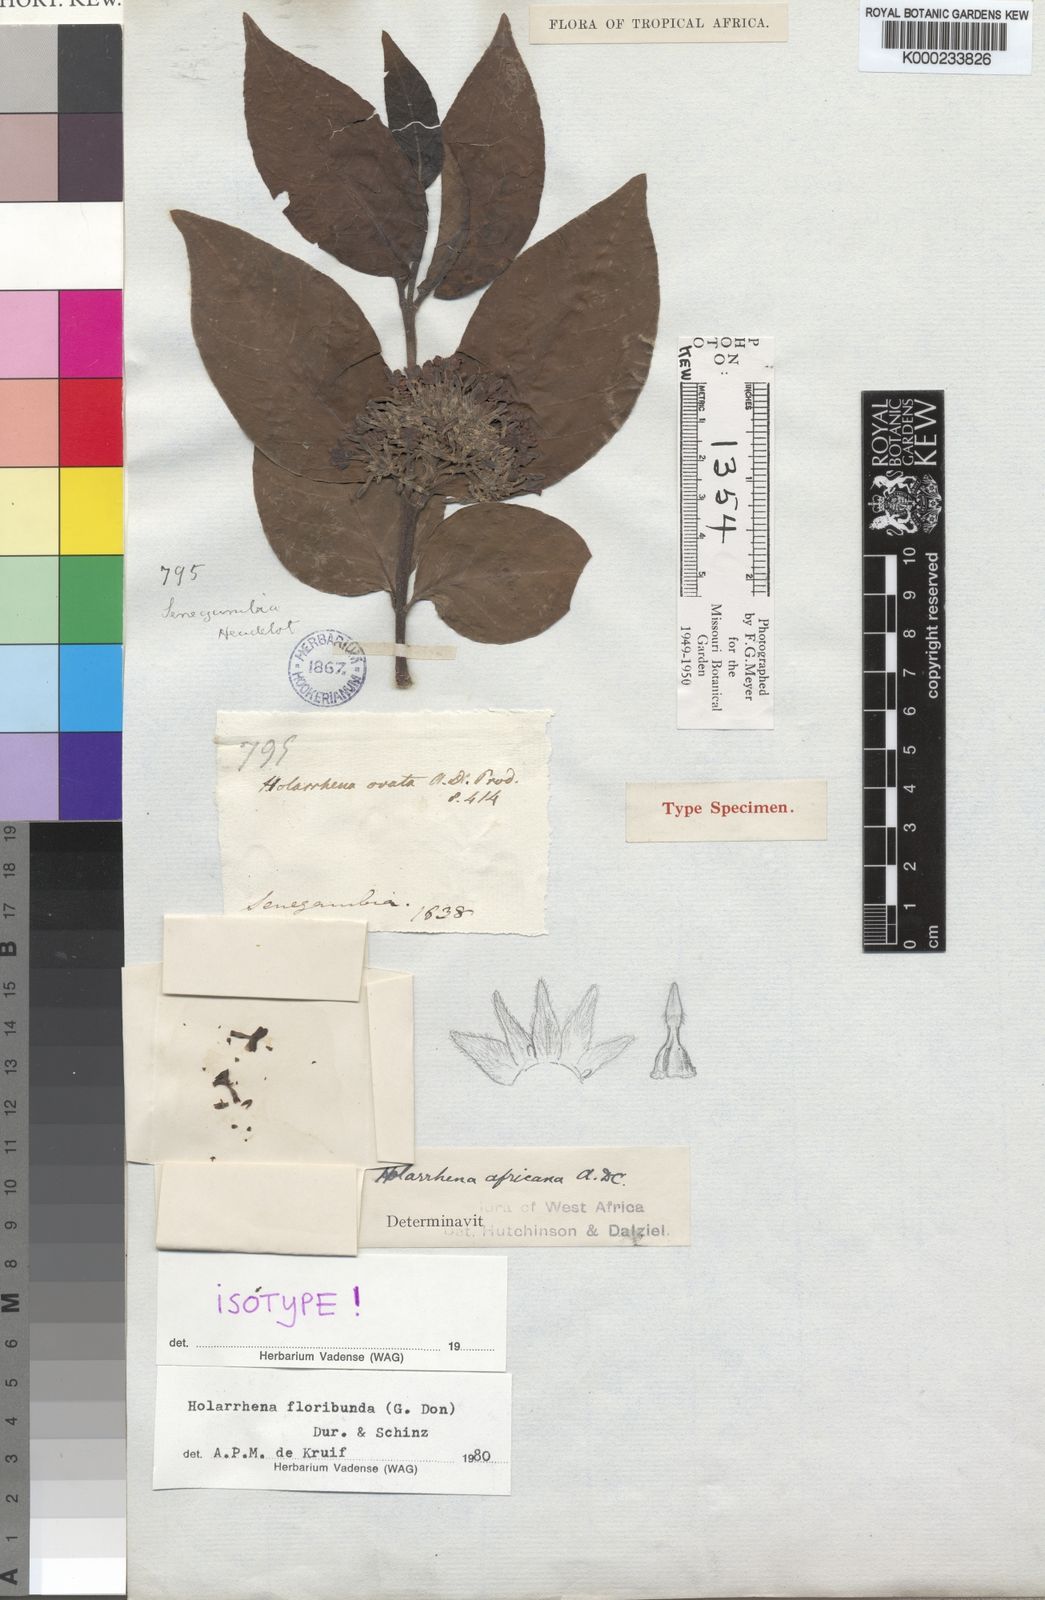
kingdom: Plantae
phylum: Tracheophyta
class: Magnoliopsida
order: Gentianales
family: Apocynaceae
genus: Holarrhena
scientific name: Holarrhena floribunda
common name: Kurchibark
